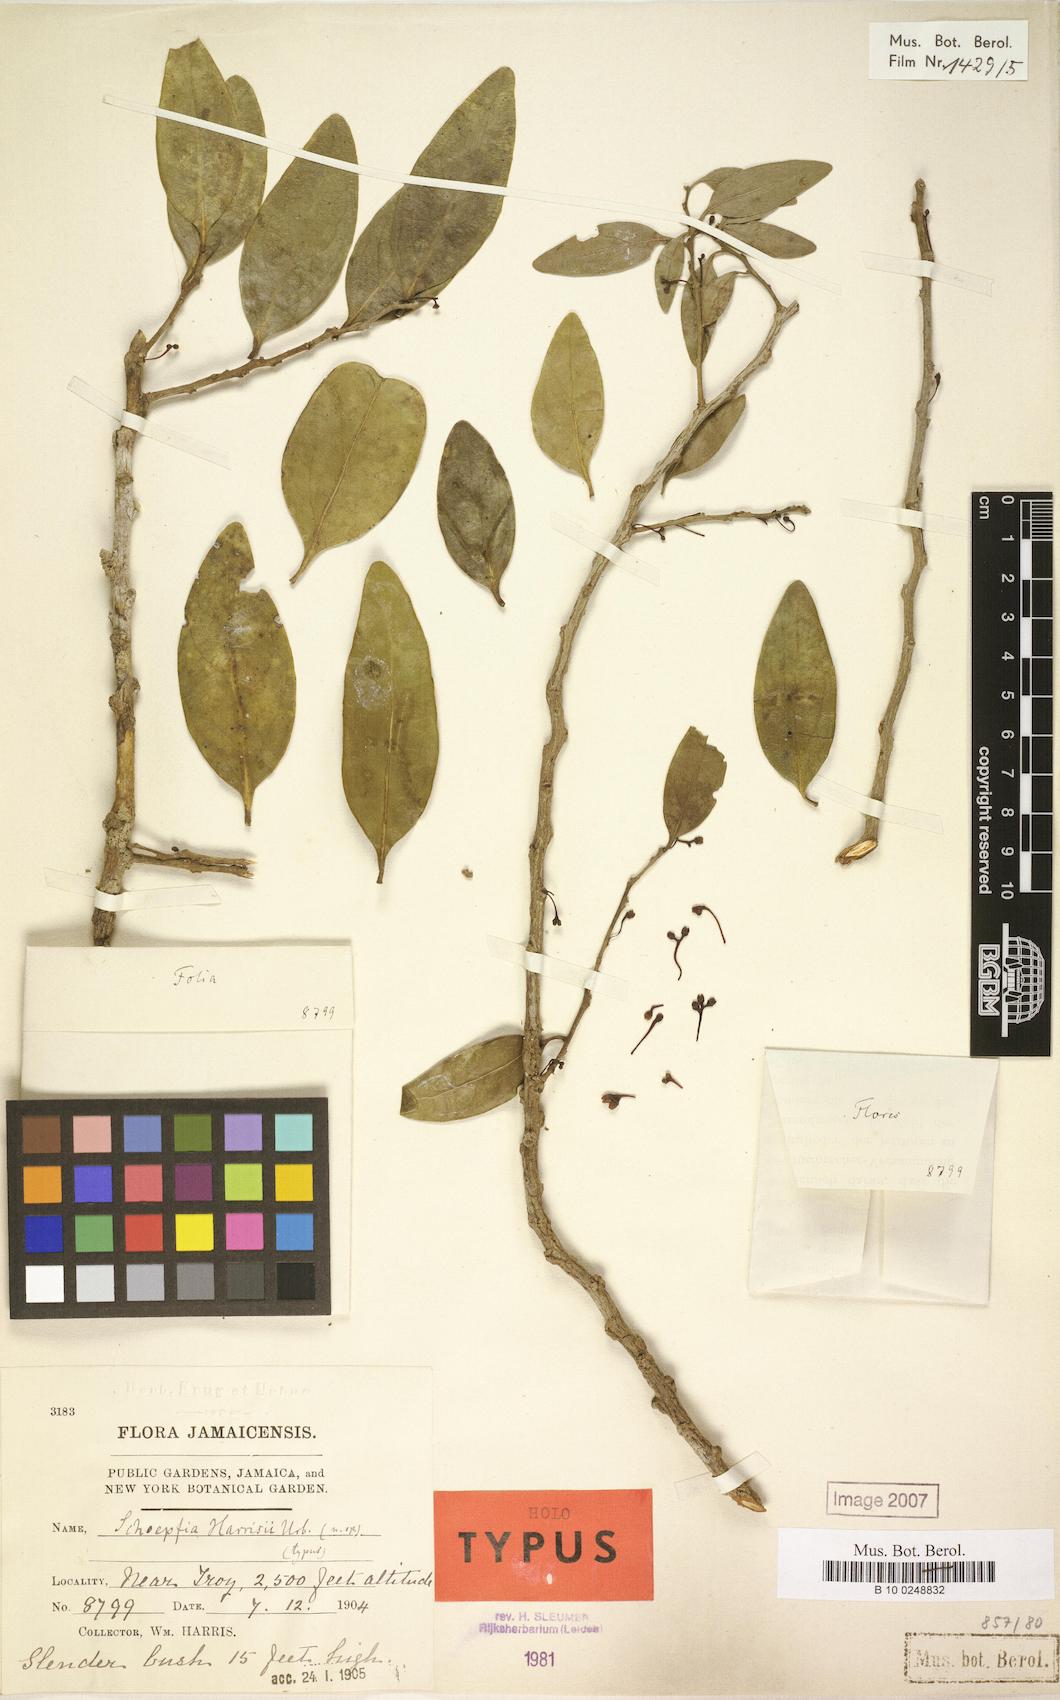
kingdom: Plantae
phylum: Tracheophyta
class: Magnoliopsida
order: Santalales
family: Schoepfiaceae
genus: Schoepfia
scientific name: Schoepfia harrisii
